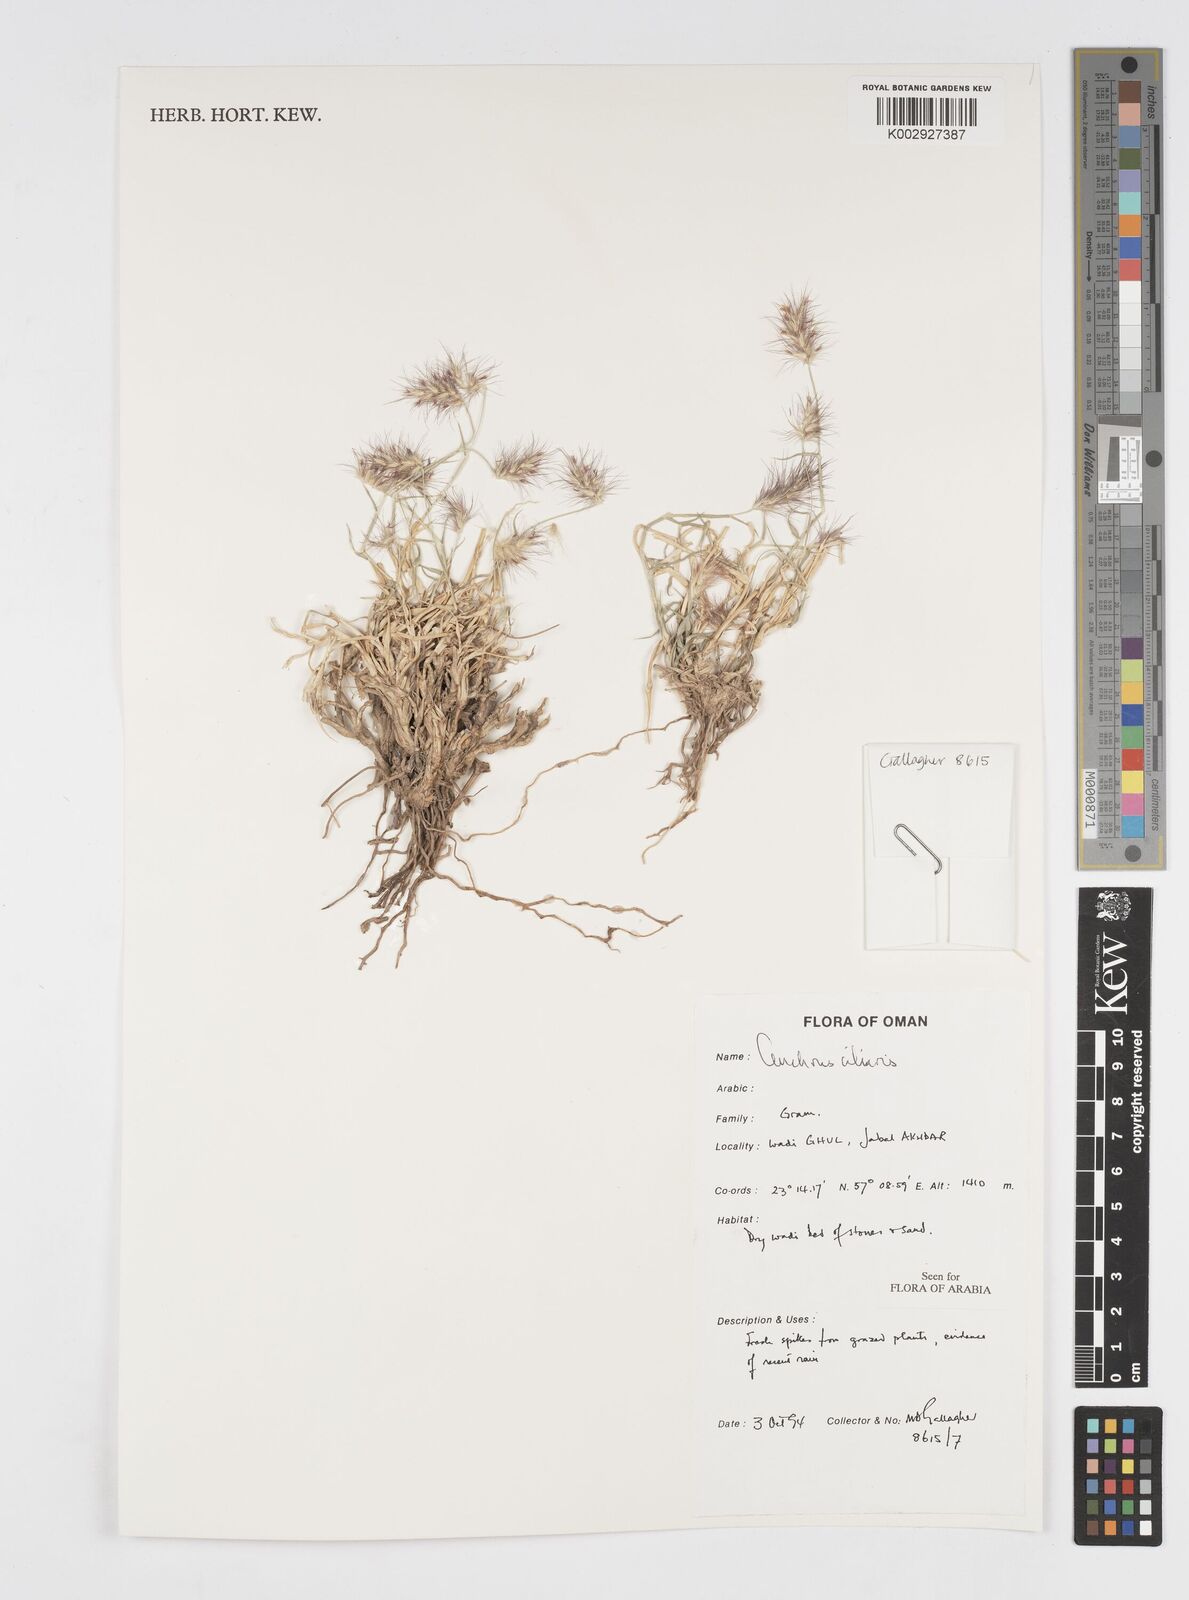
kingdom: Plantae
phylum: Tracheophyta
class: Liliopsida
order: Poales
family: Poaceae
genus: Cenchrus
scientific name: Cenchrus ciliaris
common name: Buffelgrass
